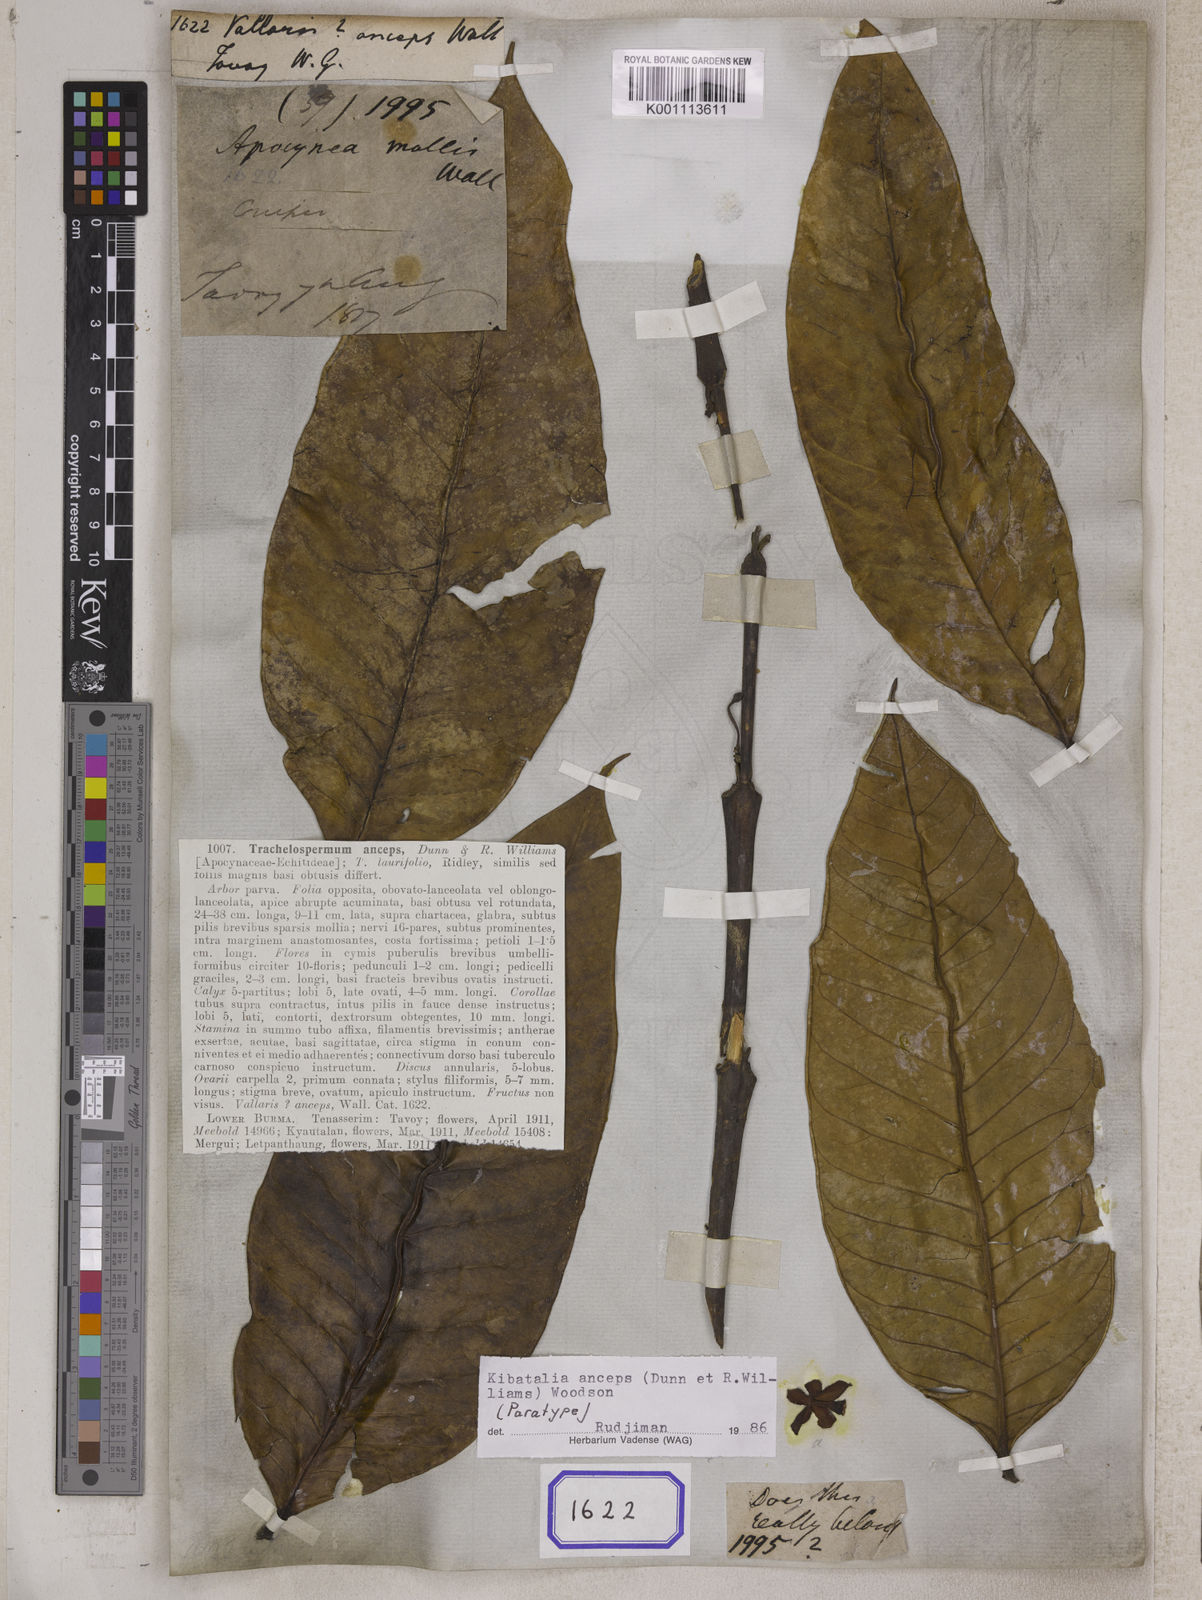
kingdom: Plantae
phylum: Tracheophyta
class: Magnoliopsida
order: Gentianales
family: Apocynaceae
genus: Vallaris
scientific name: Vallaris
